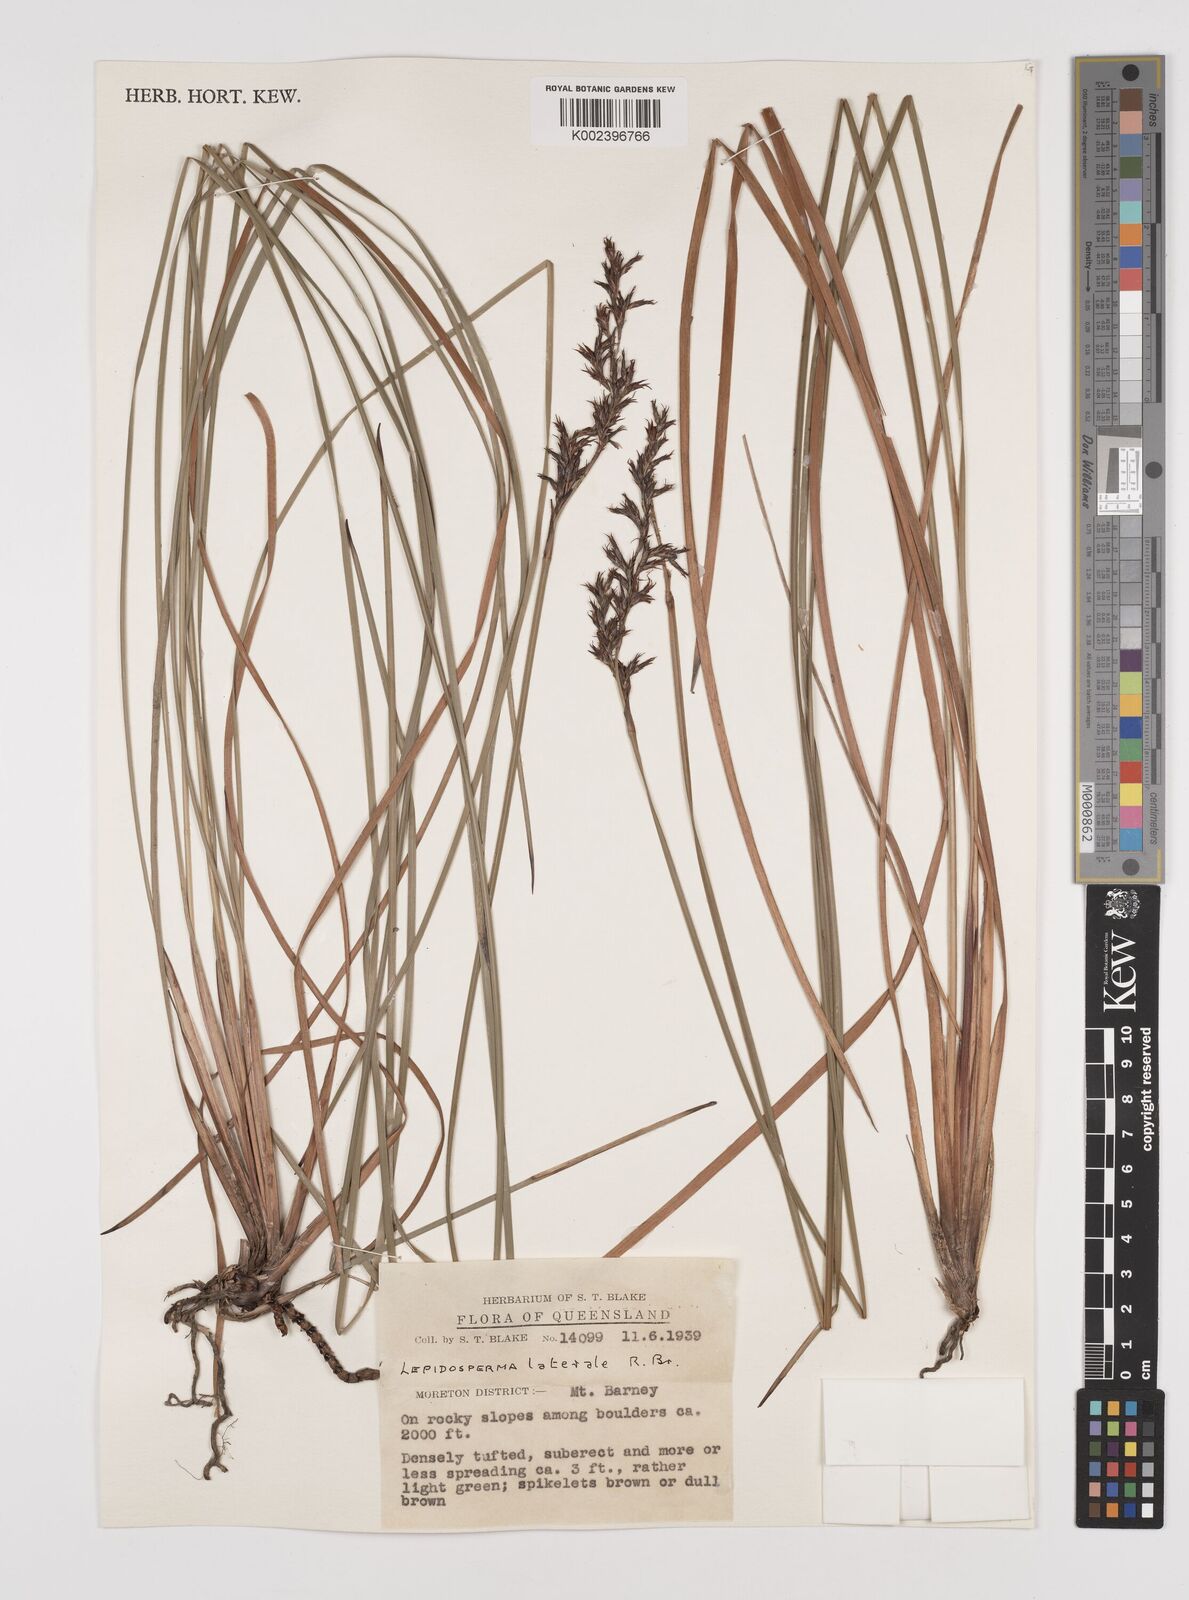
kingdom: Plantae
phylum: Tracheophyta
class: Liliopsida
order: Poales
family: Cyperaceae
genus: Lepidosperma
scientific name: Lepidosperma laterale
